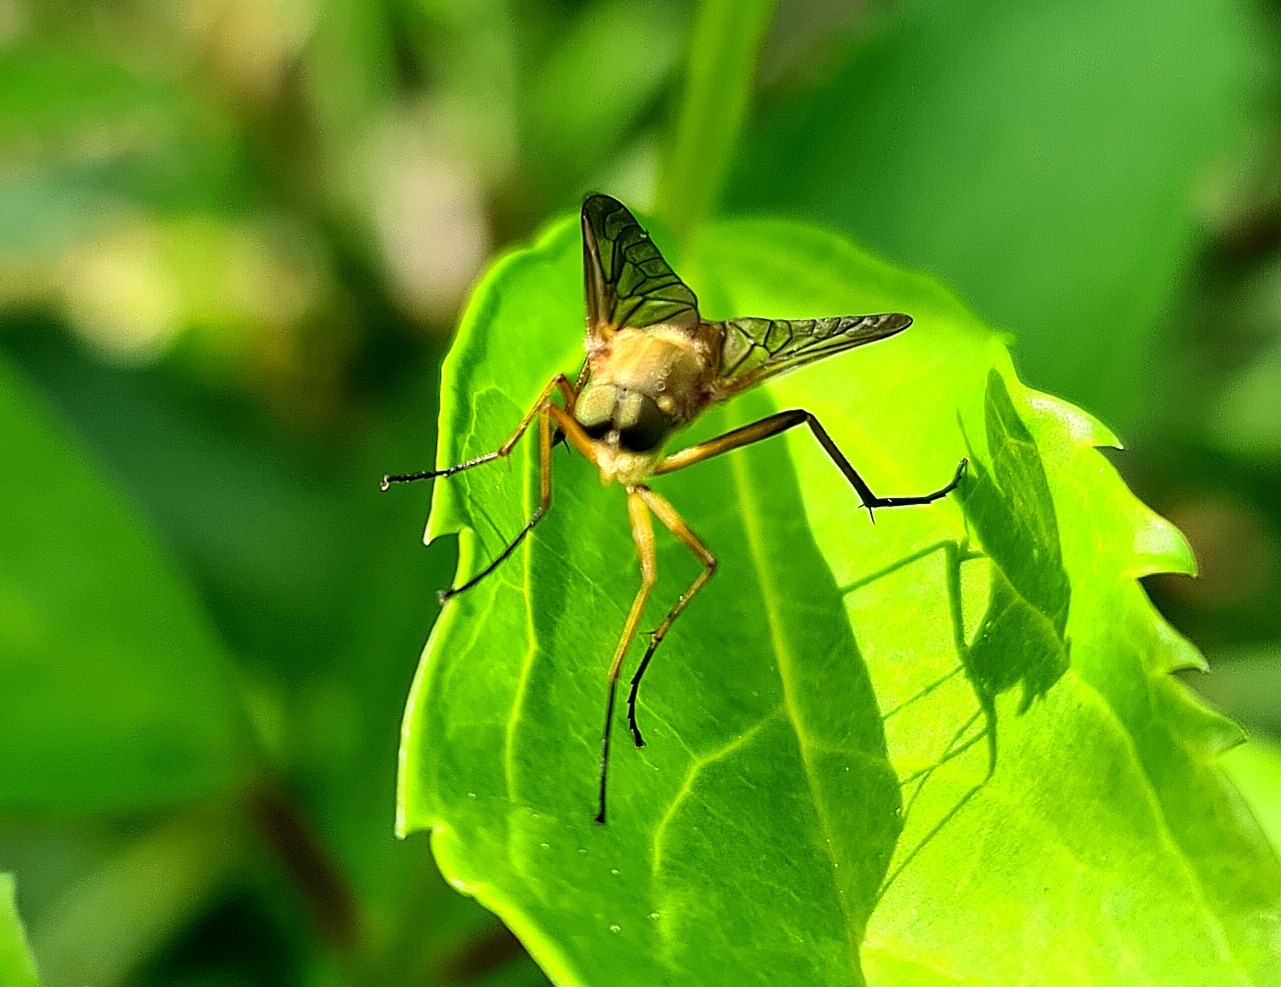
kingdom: Animalia
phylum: Arthropoda
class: Insecta
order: Diptera
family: Rhagionidae
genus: Rhagio
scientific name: Rhagio tringaria
